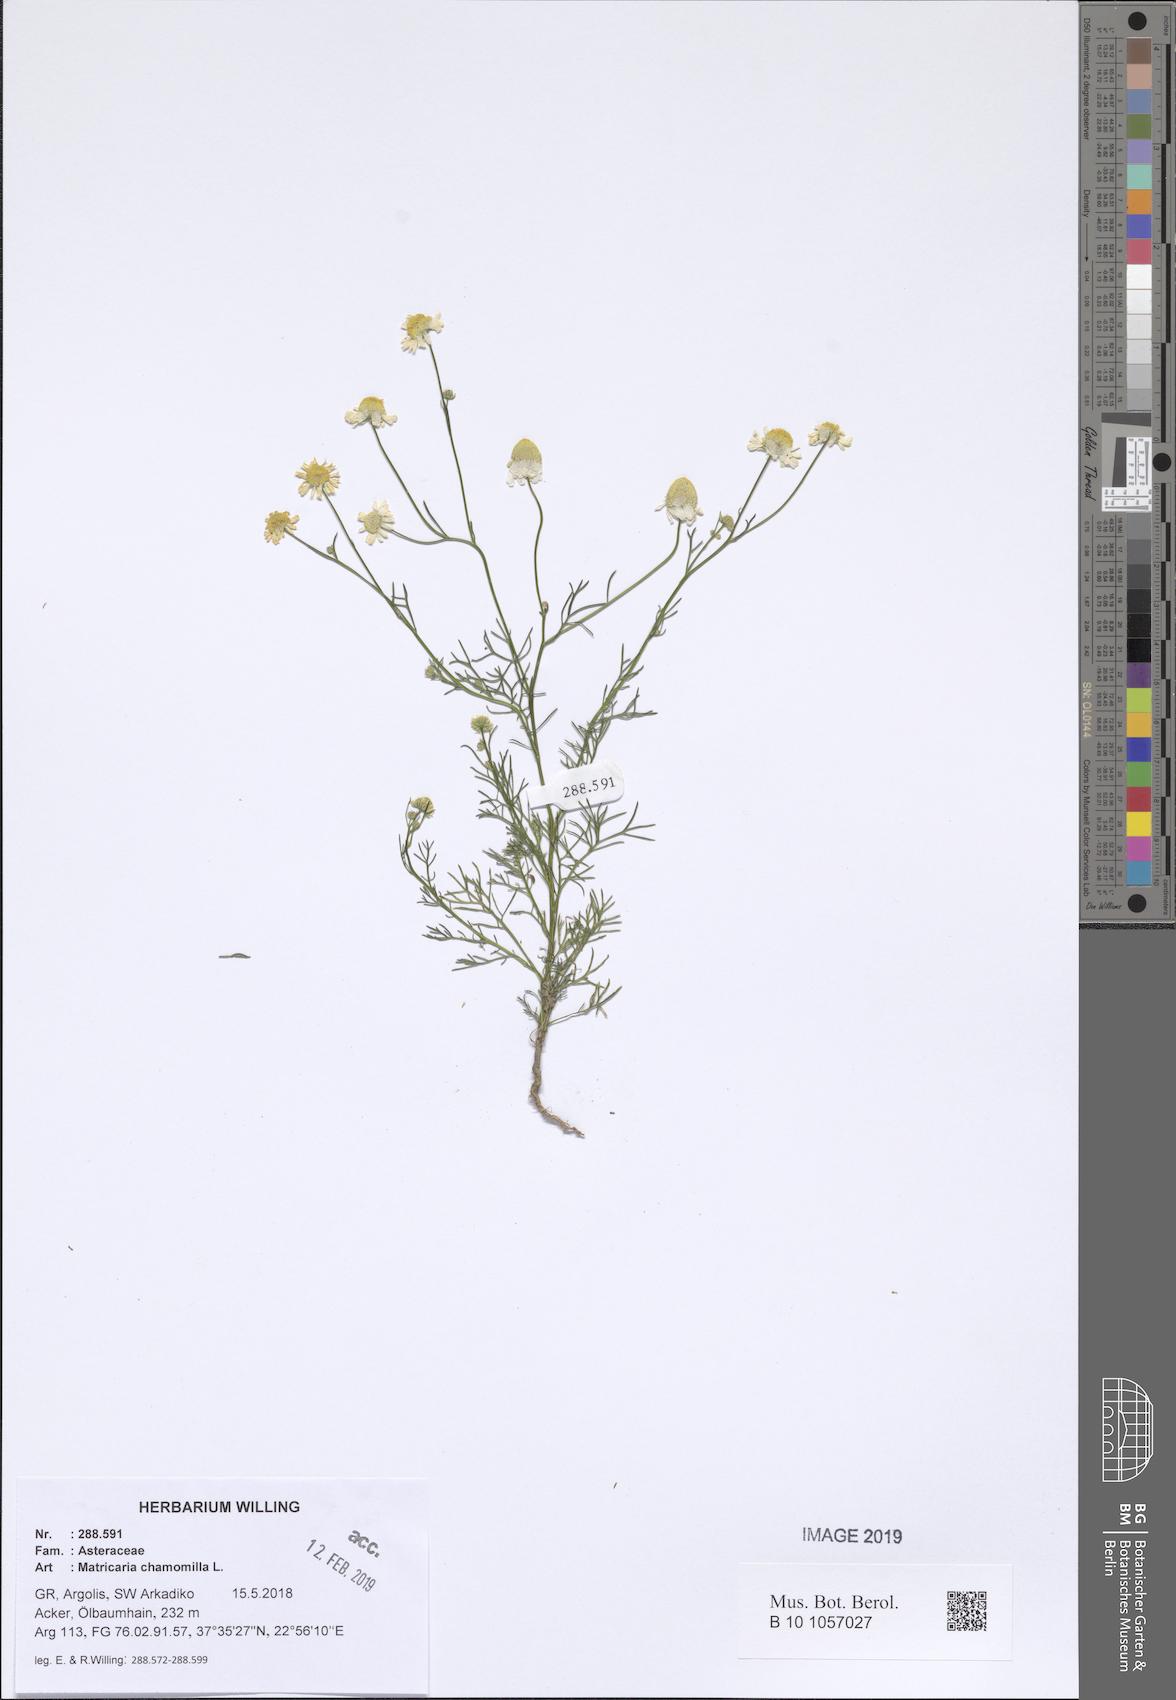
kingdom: Plantae
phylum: Tracheophyta
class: Magnoliopsida
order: Asterales
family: Asteraceae
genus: Matricaria
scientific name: Matricaria chamomilla
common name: Scented mayweed
